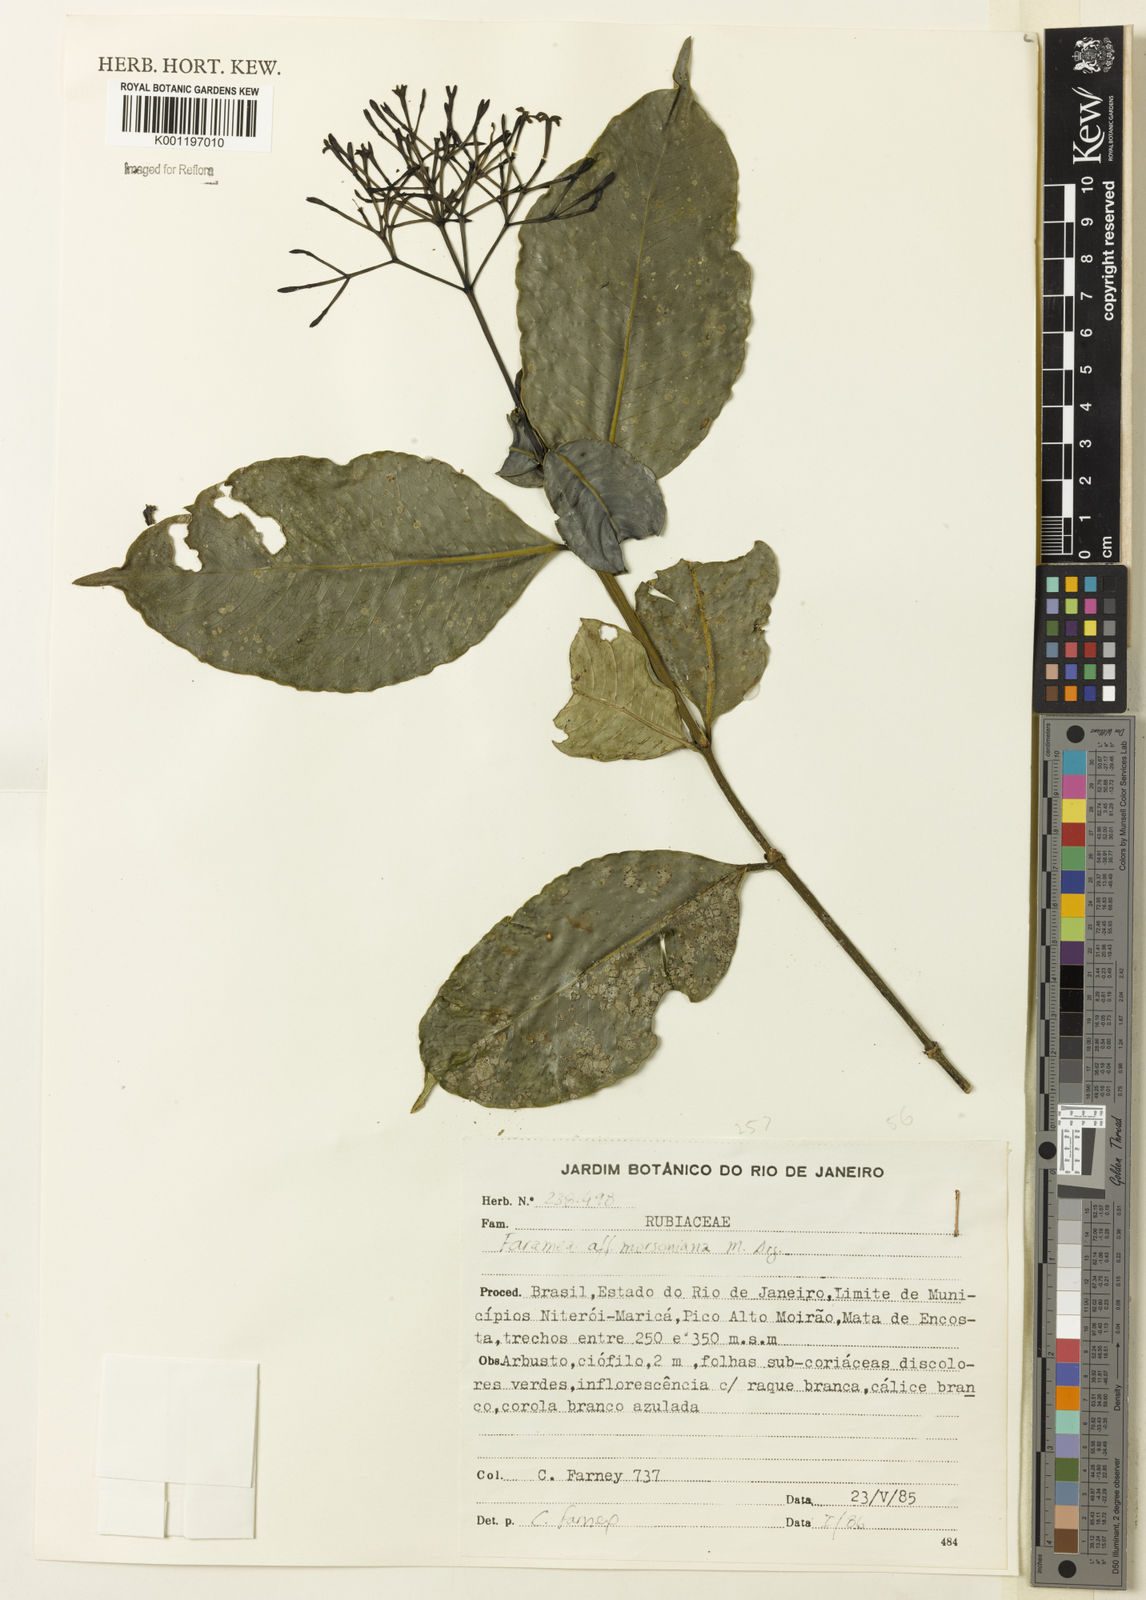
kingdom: Plantae
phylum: Tracheophyta
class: Magnoliopsida
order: Gentianales
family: Rubiaceae
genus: Faramea
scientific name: Faramea
